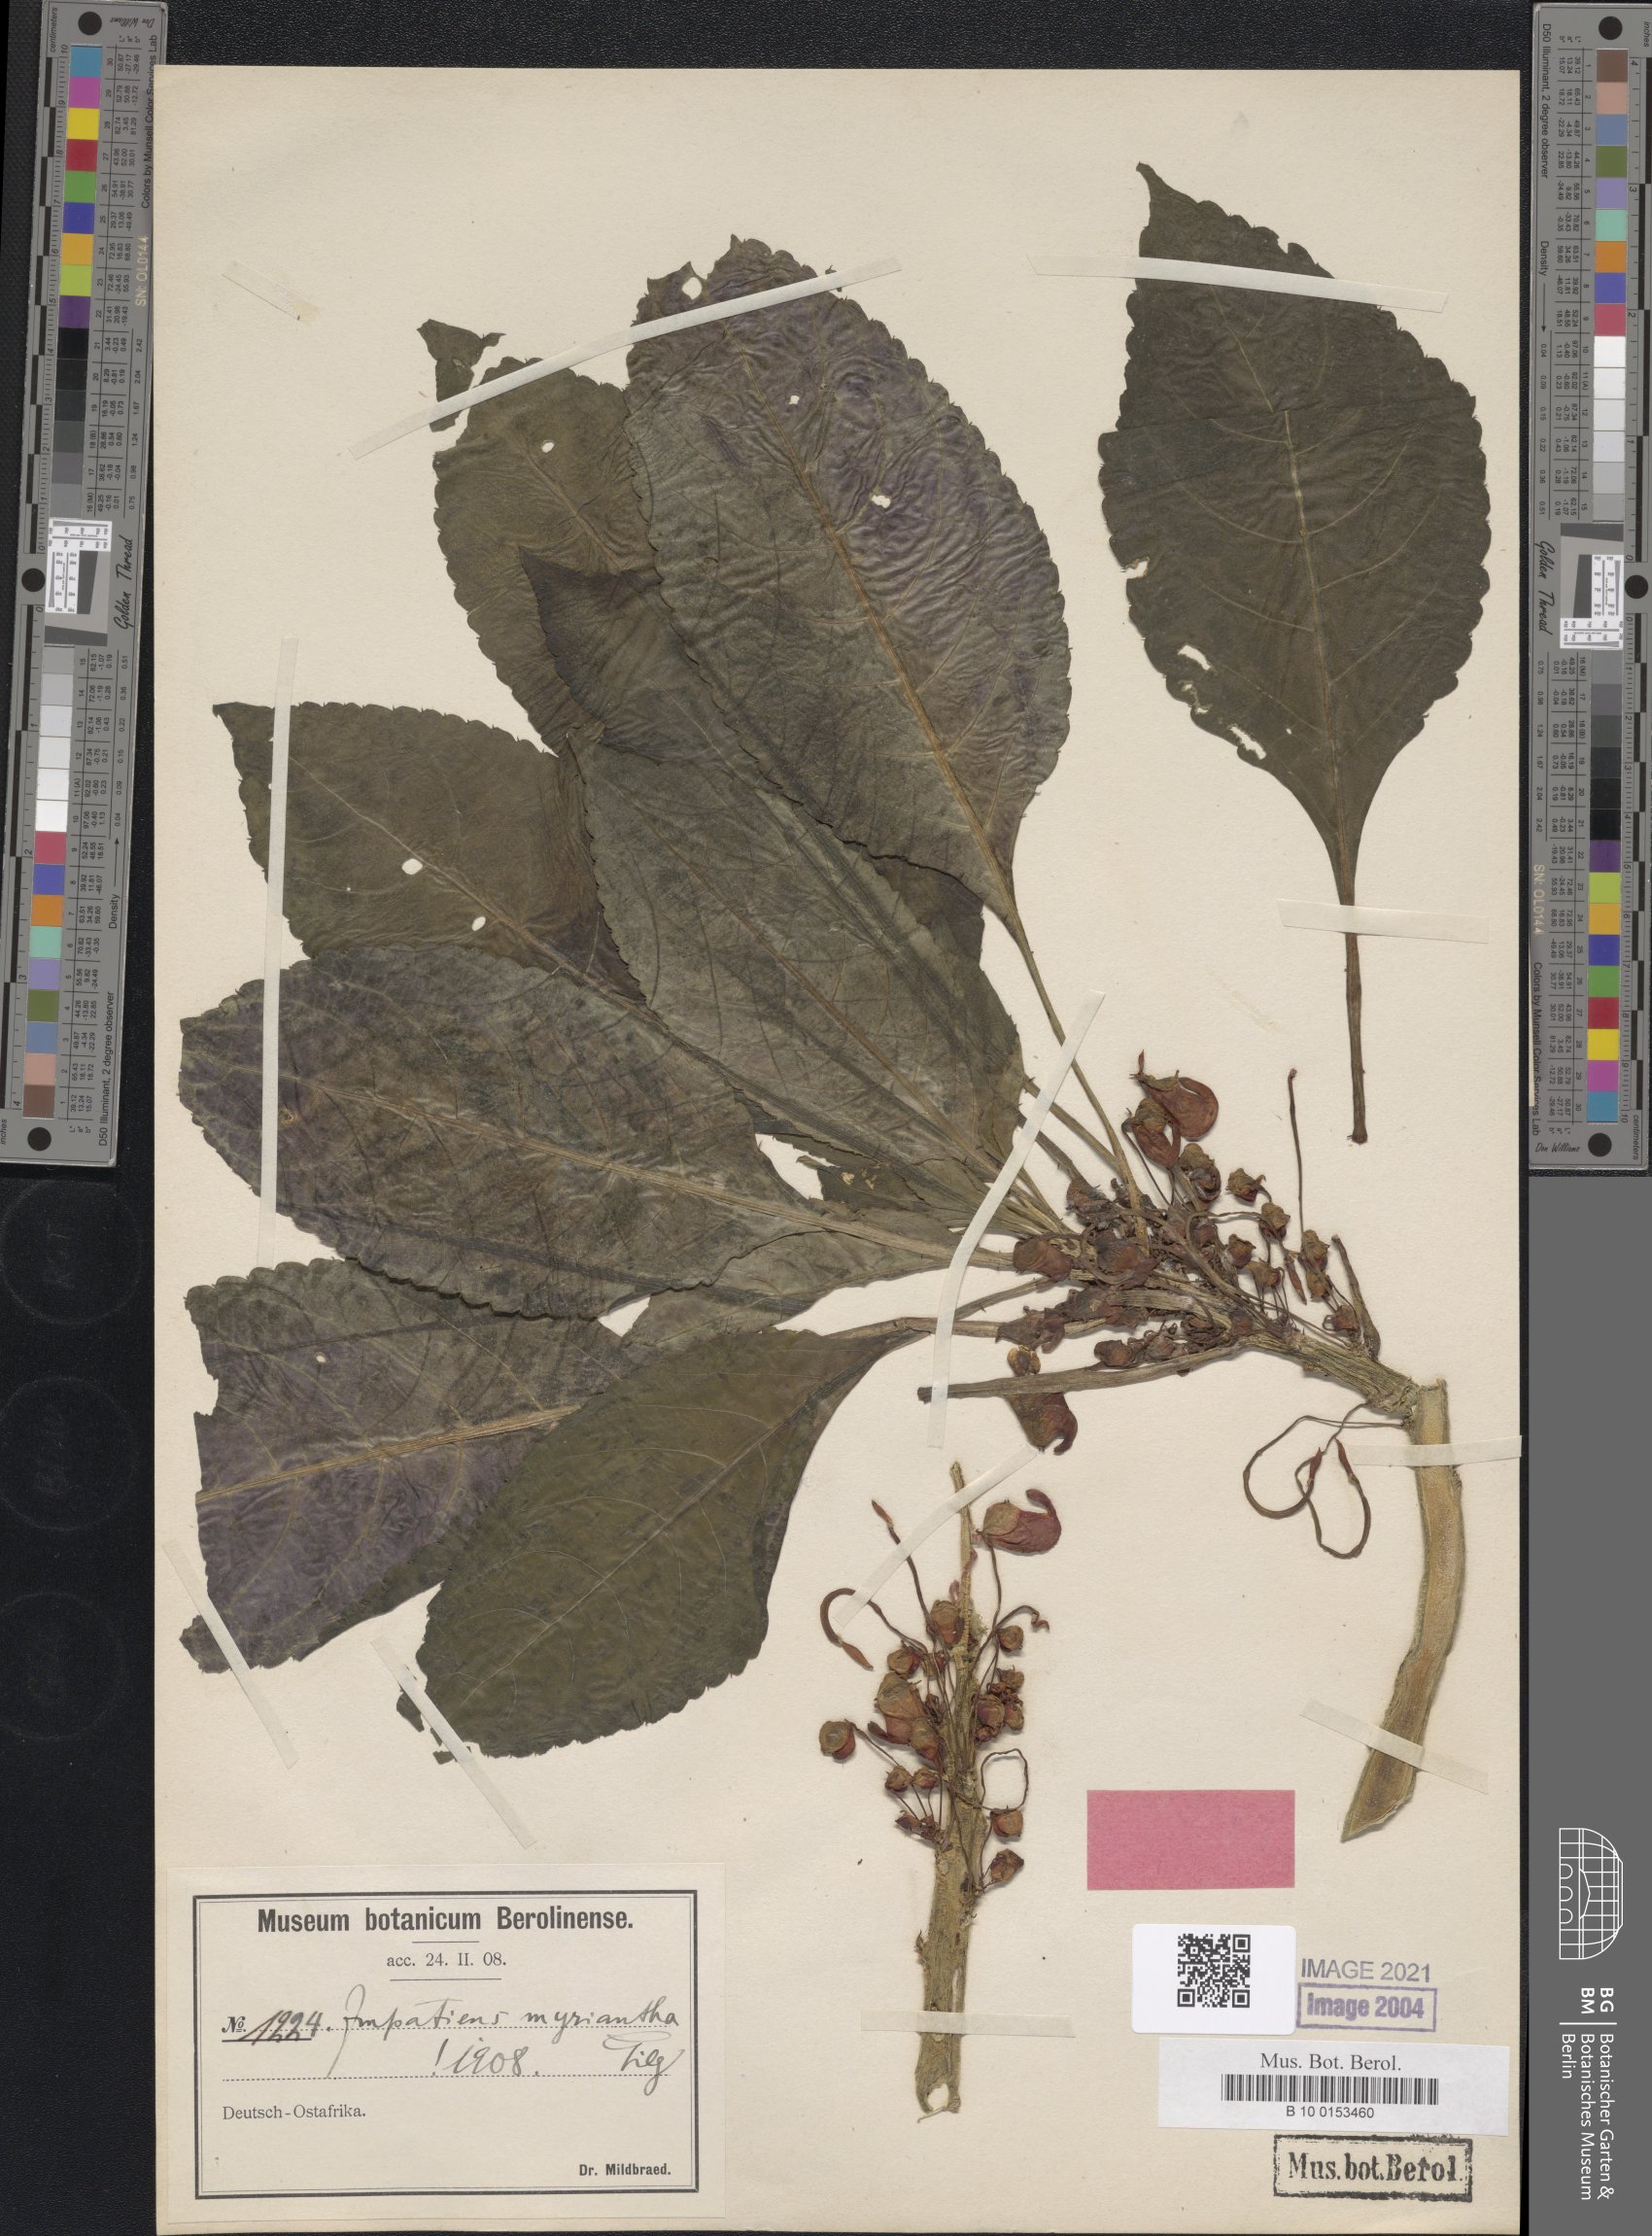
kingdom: Plantae
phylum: Tracheophyta
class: Magnoliopsida
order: Ericales
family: Balsaminaceae
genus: Impatiens
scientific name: Impatiens niamniamensis
